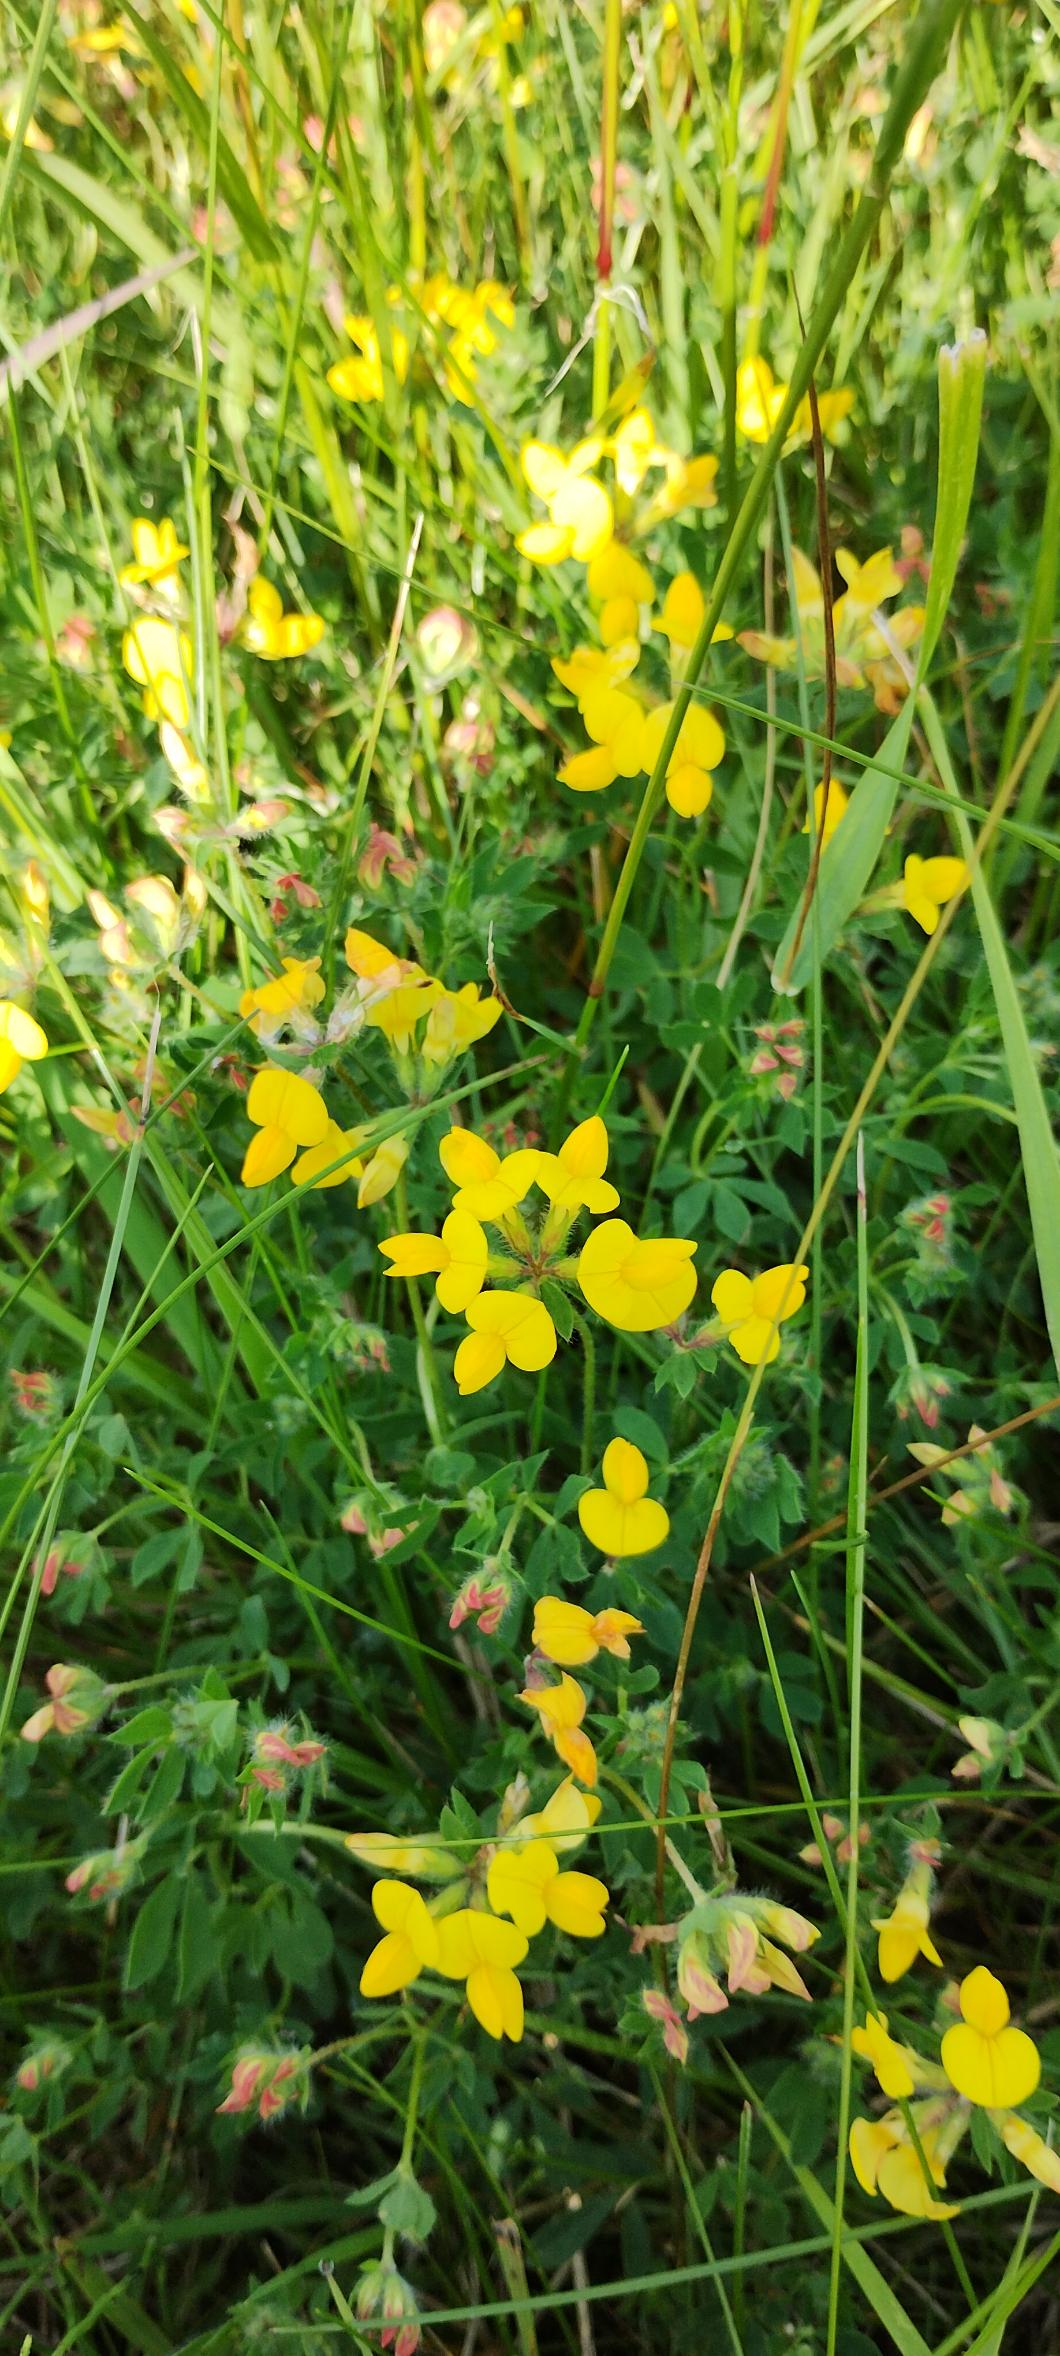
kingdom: Plantae
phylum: Tracheophyta
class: Magnoliopsida
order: Fabales
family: Fabaceae
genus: Lotus
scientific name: Lotus corniculatus
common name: Almindelig kællingetand
